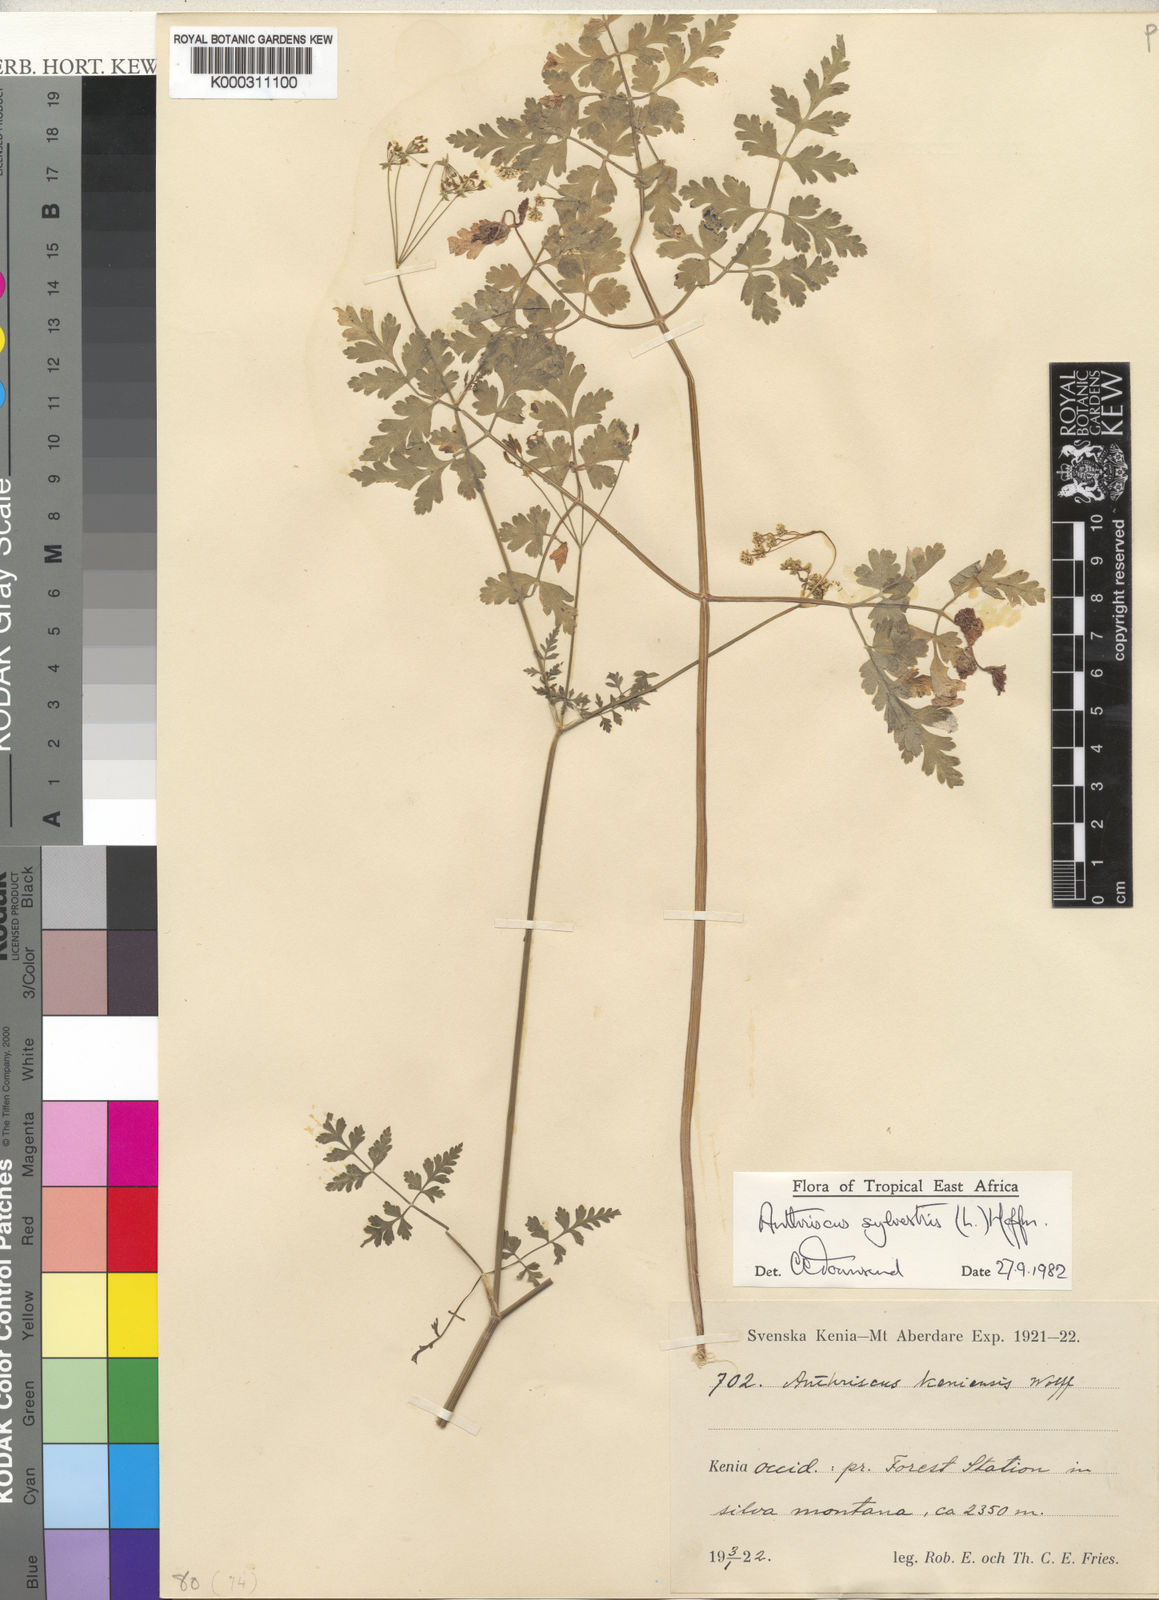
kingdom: Plantae
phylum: Tracheophyta
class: Magnoliopsida
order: Apiales
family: Apiaceae
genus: Anthriscus
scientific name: Anthriscus sylvestris
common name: Cow parsley
